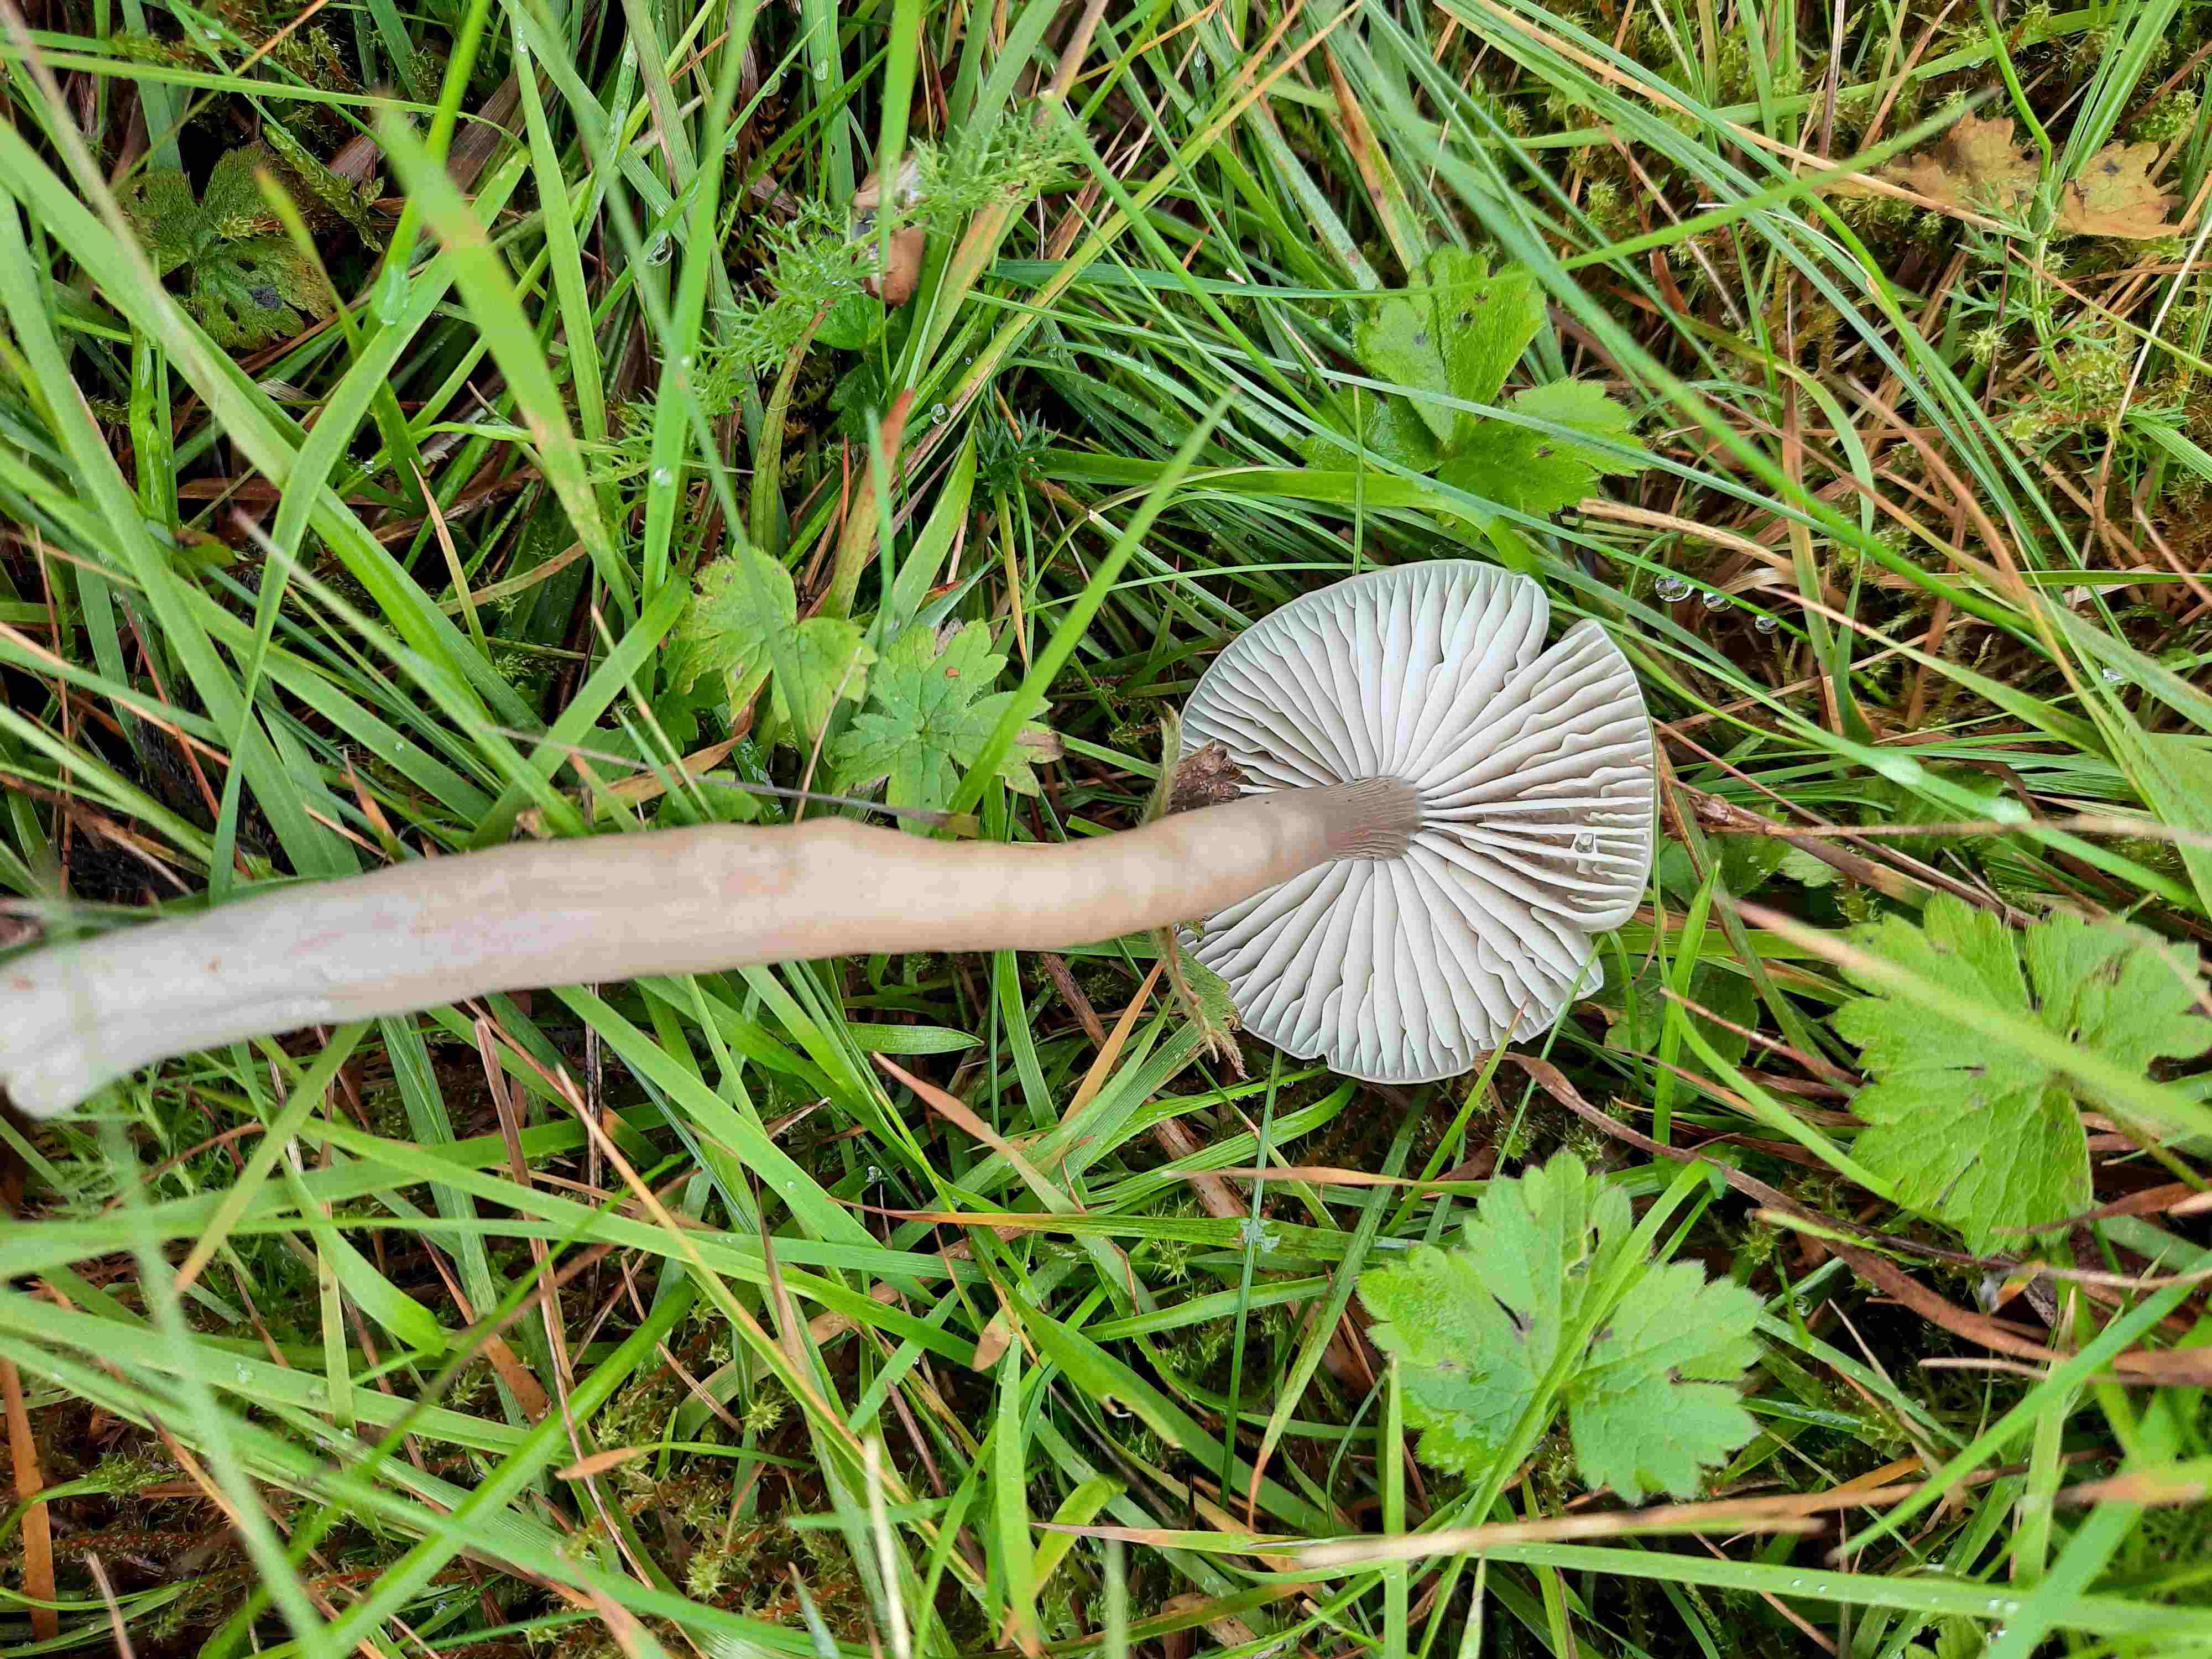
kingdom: Fungi
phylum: Basidiomycota
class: Agaricomycetes
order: Agaricales
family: Hygrophoraceae
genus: Gliophorus
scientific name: Gliophorus irrigatus
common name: slimet vokshat
